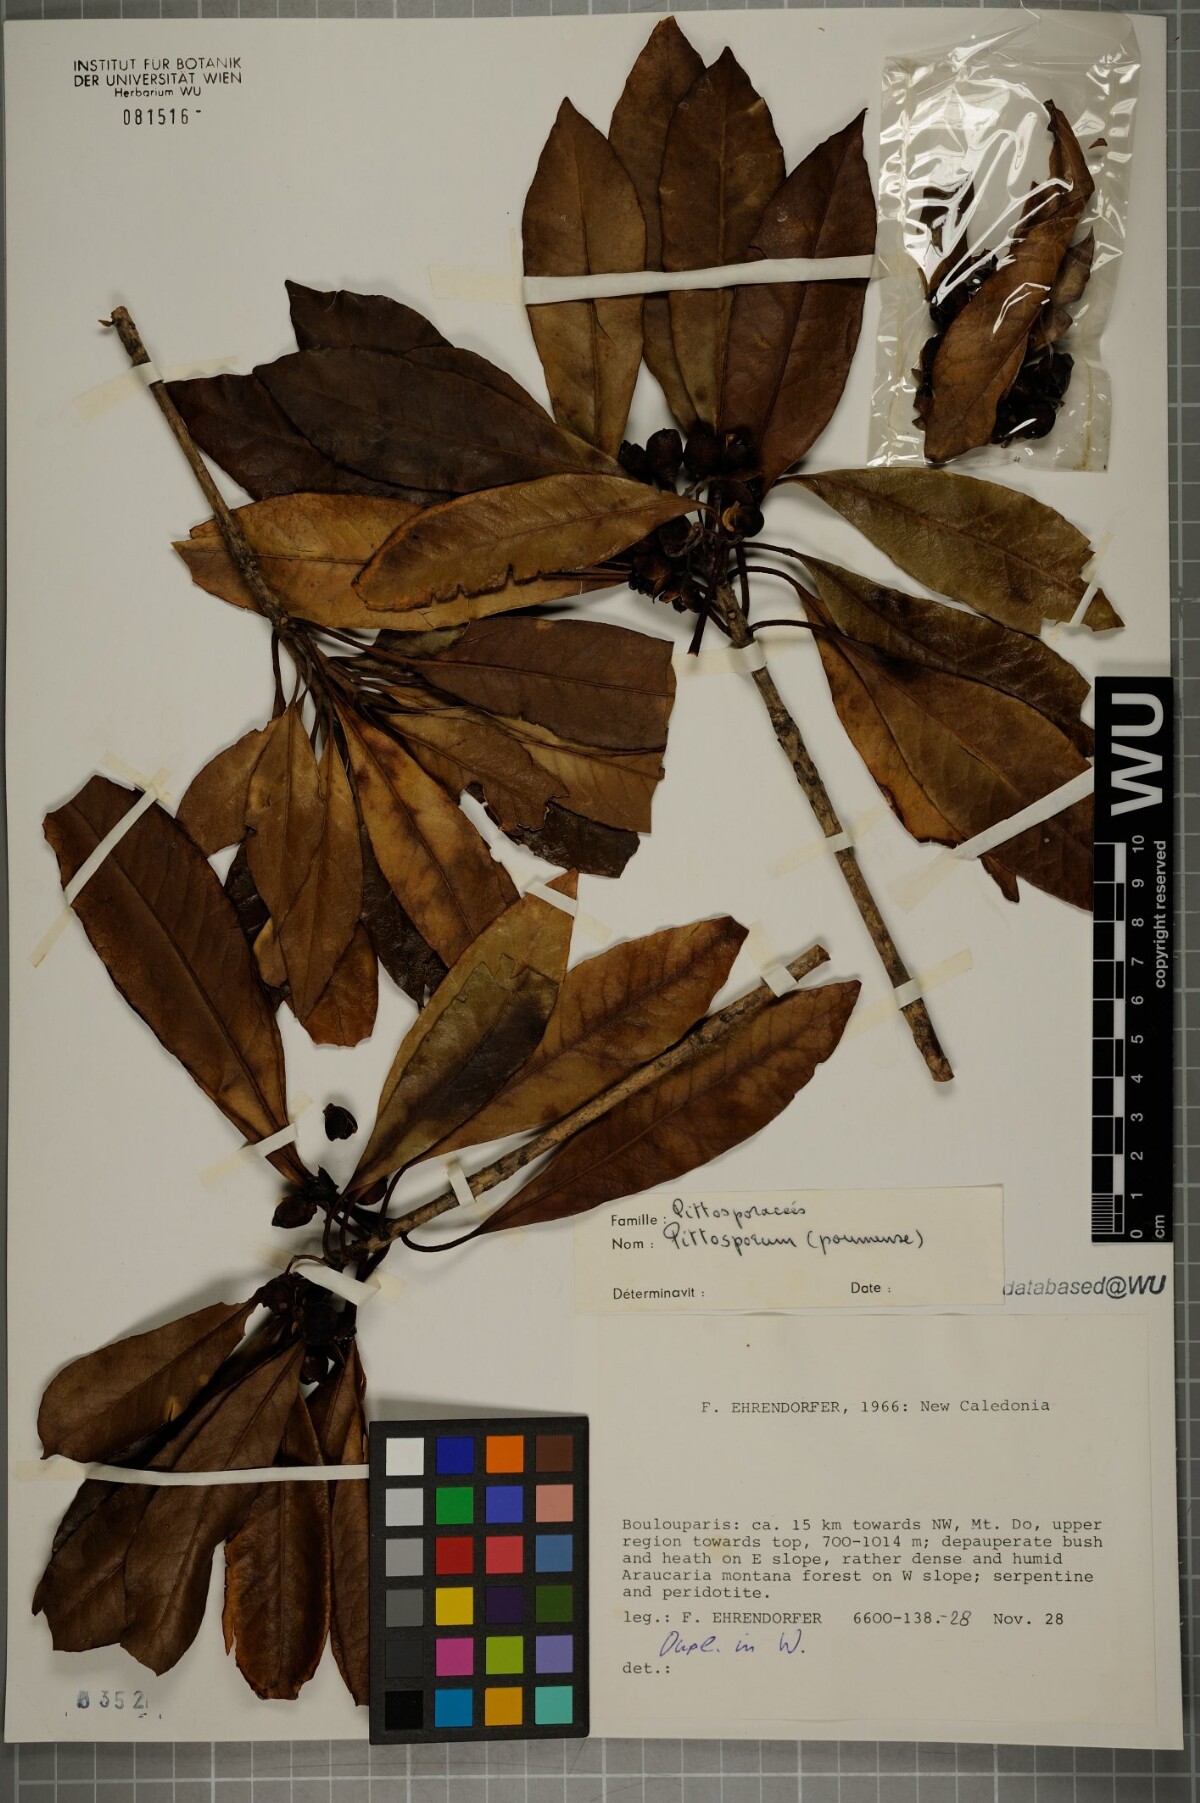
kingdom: Plantae
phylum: Tracheophyta
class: Magnoliopsida
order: Apiales
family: Pittosporaceae
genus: Pittosporum
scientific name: Pittosporum poumense
